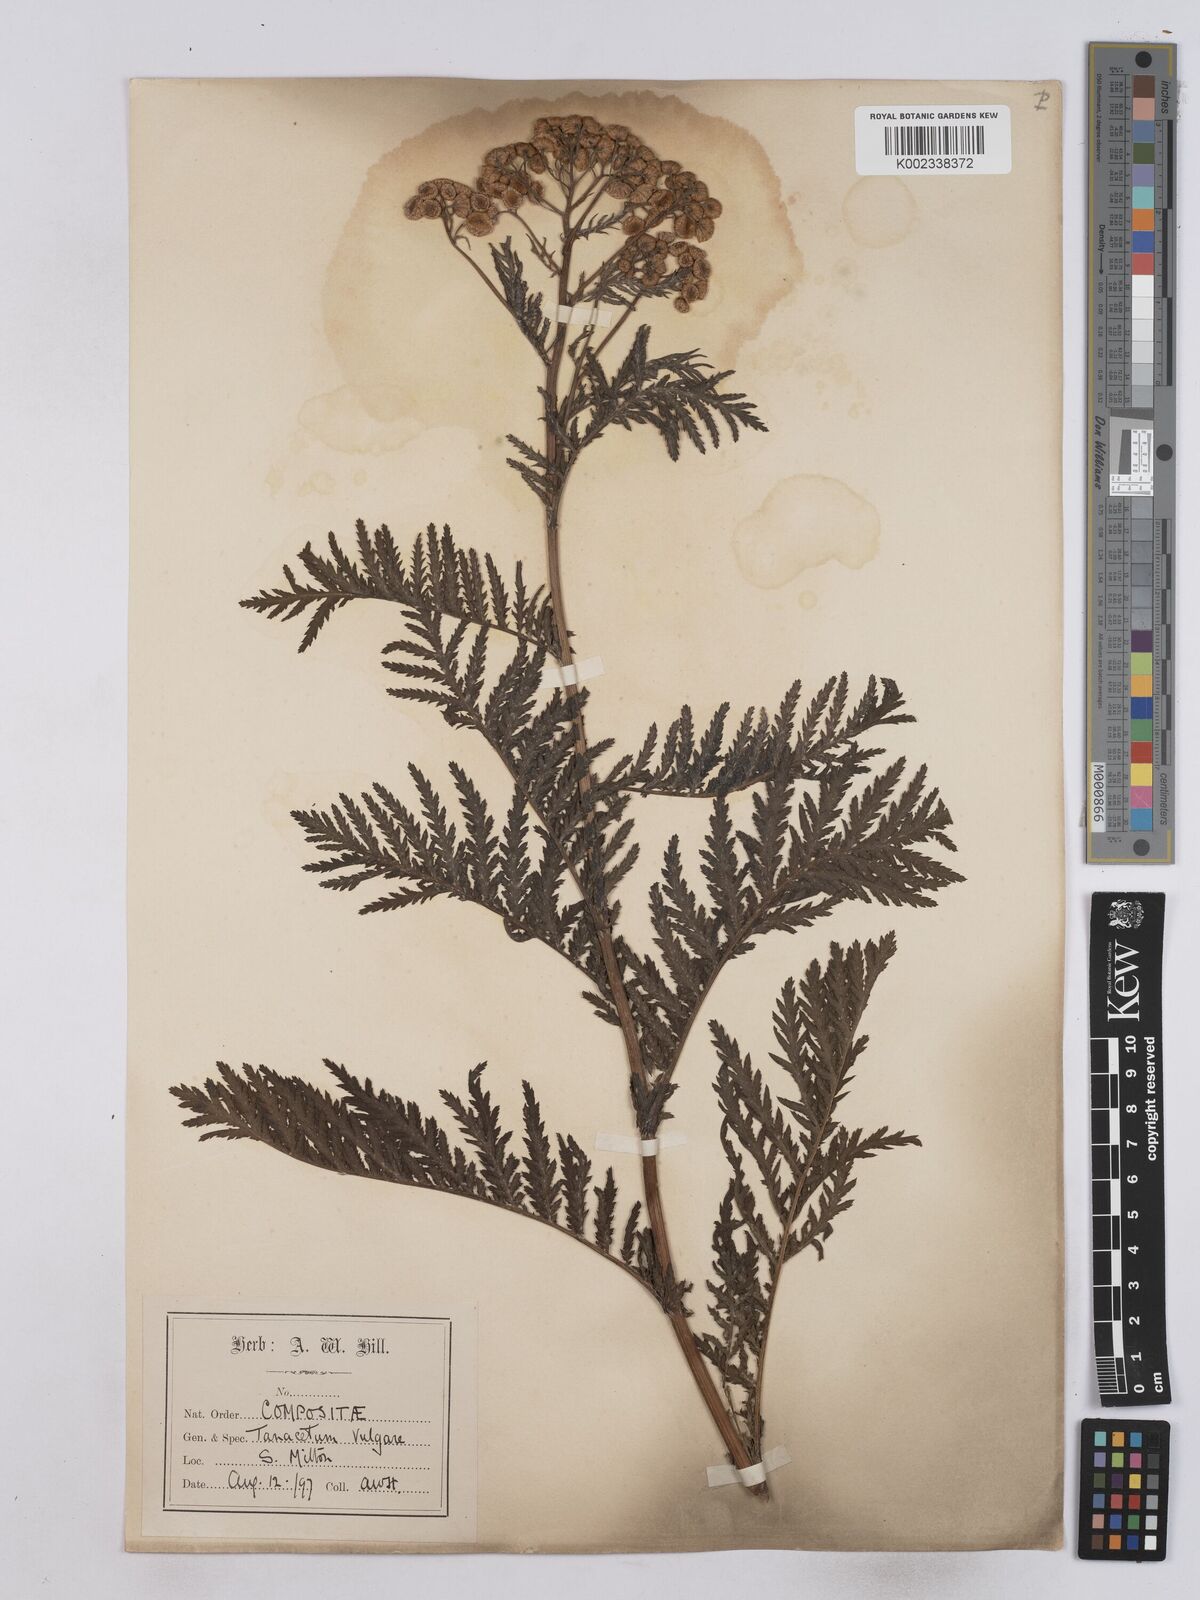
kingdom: Plantae
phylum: Tracheophyta
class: Magnoliopsida
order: Asterales
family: Asteraceae
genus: Tanacetum
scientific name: Tanacetum vulgare
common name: Common tansy
